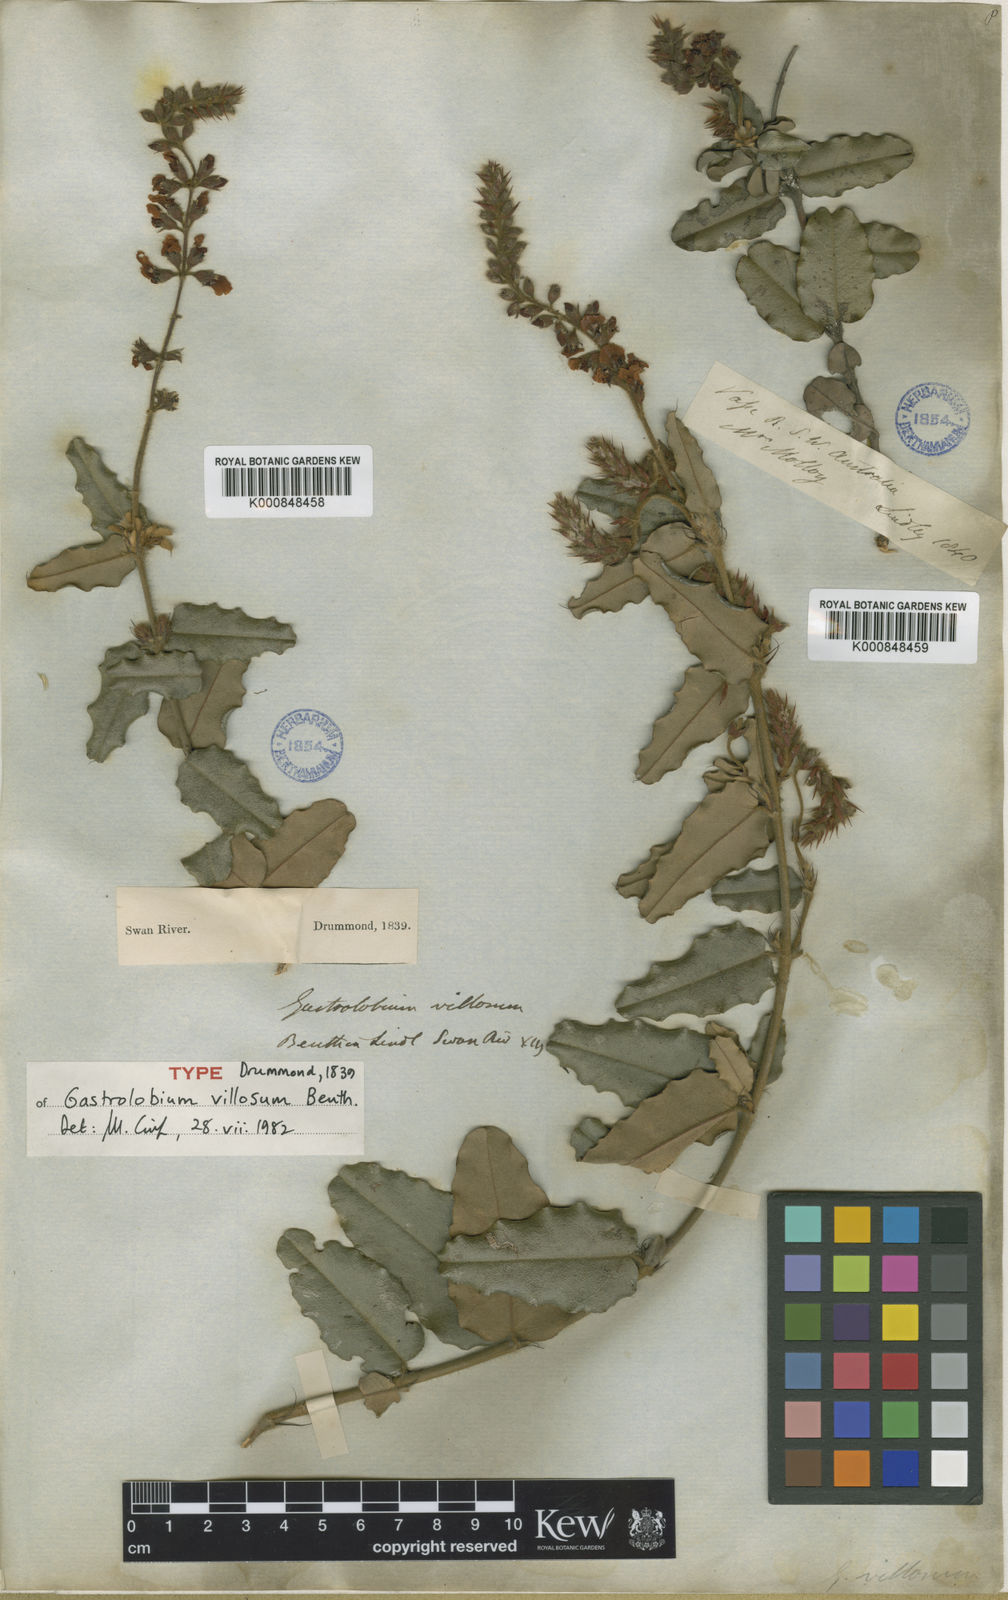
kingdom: Plantae
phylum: Tracheophyta
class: Magnoliopsida
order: Fabales
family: Fabaceae
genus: Gastrolobium
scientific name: Gastrolobium villosum
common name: Crinkle-leaf poison
